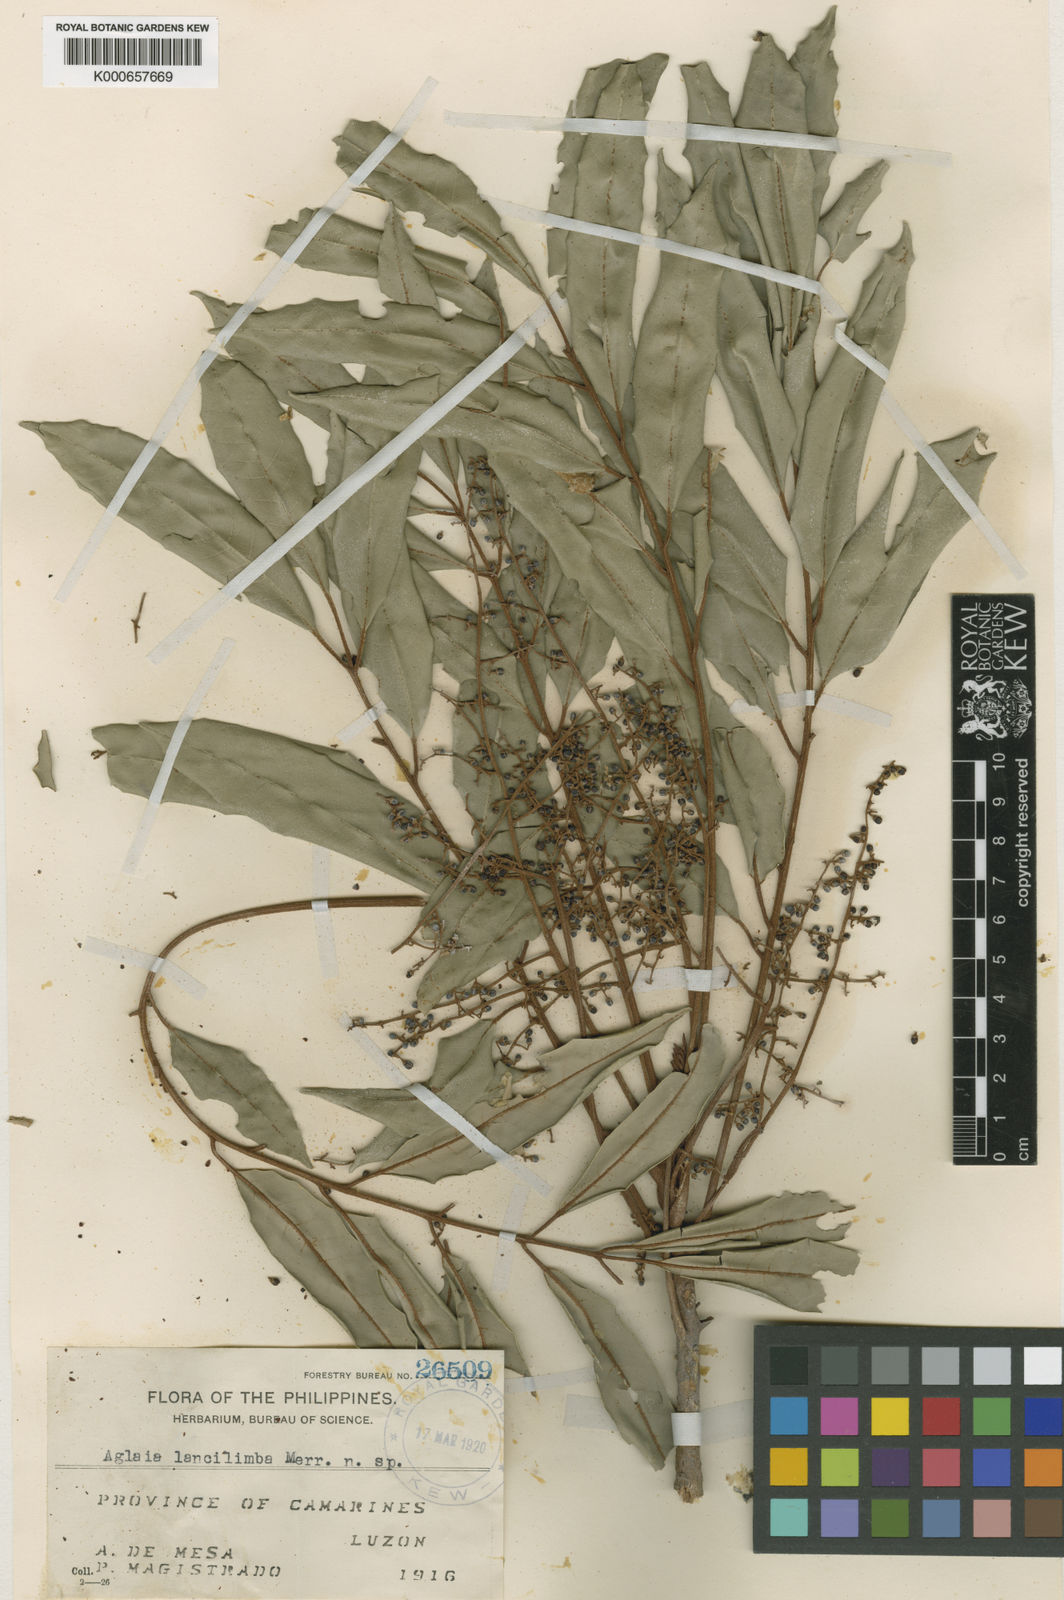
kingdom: Plantae
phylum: Tracheophyta
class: Magnoliopsida
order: Sapindales
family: Meliaceae
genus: Aglaia
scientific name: Aglaia lancilimba
